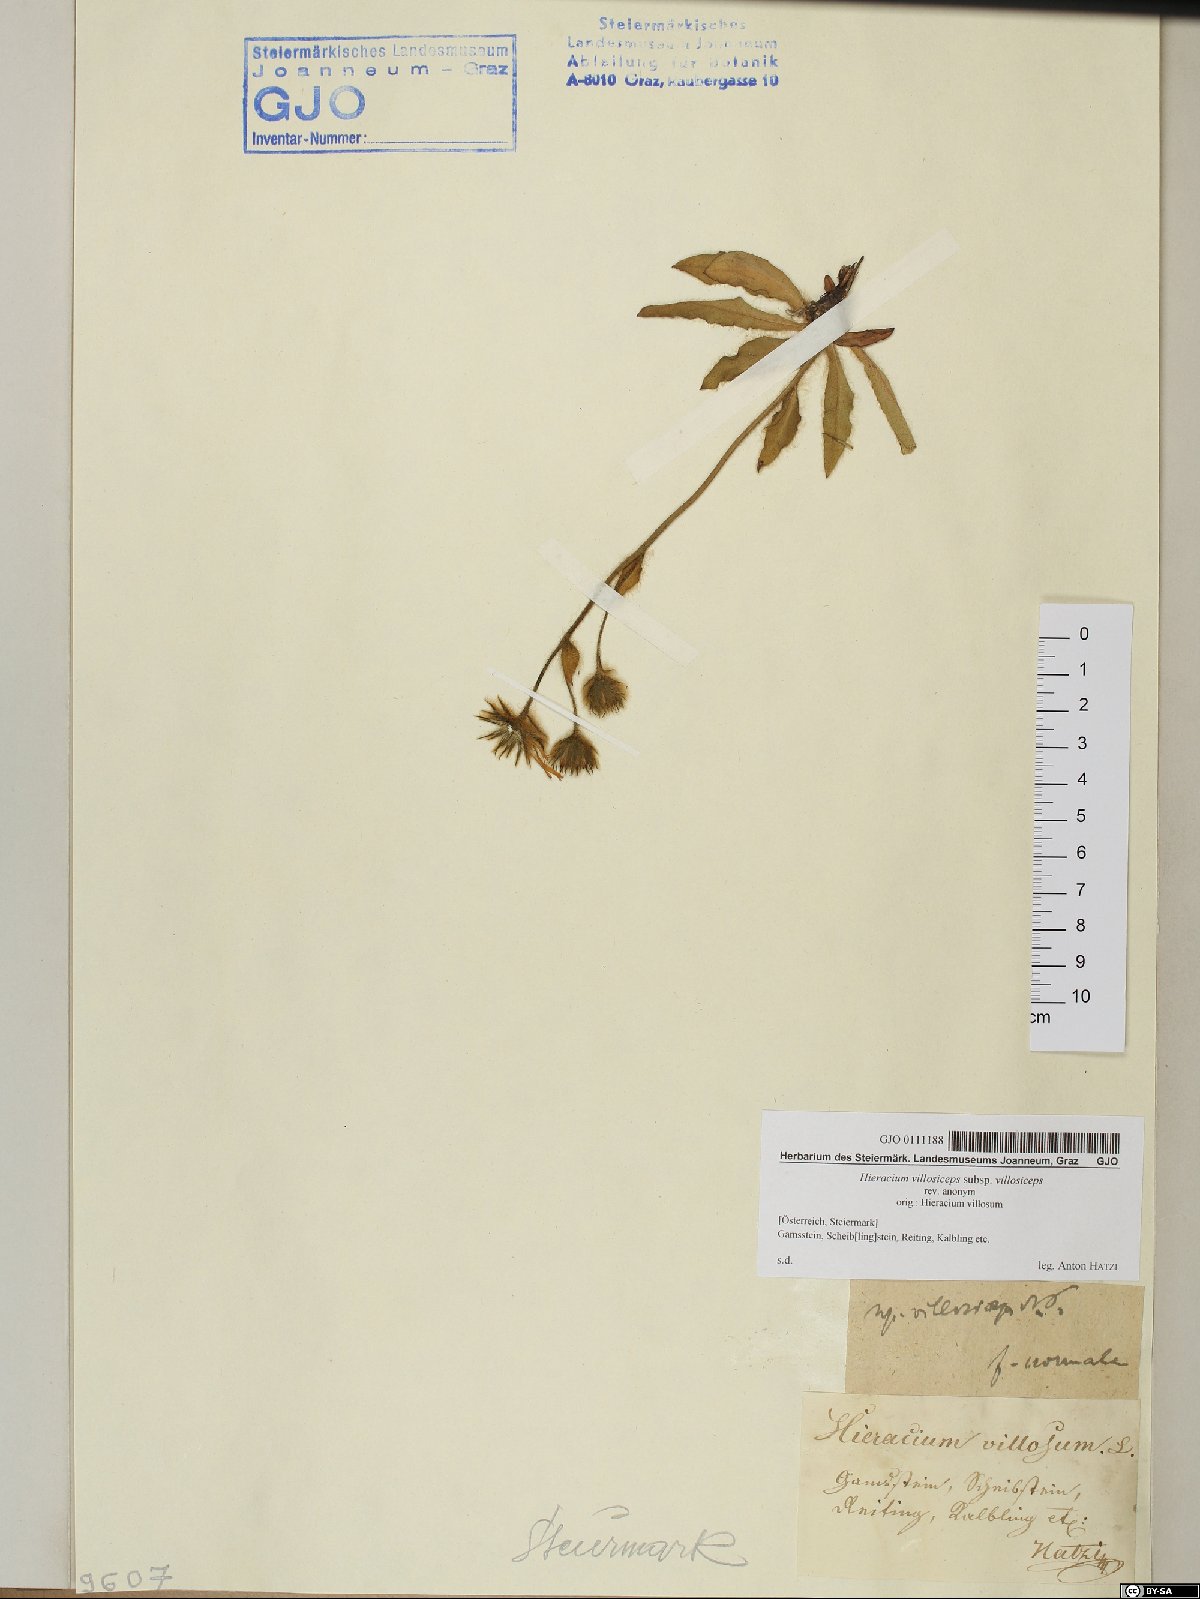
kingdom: Plantae
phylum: Tracheophyta
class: Magnoliopsida
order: Asterales
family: Asteraceae
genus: Hieracium
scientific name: Hieracium pilosum
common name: Fimbriate-pitted hawkweed
